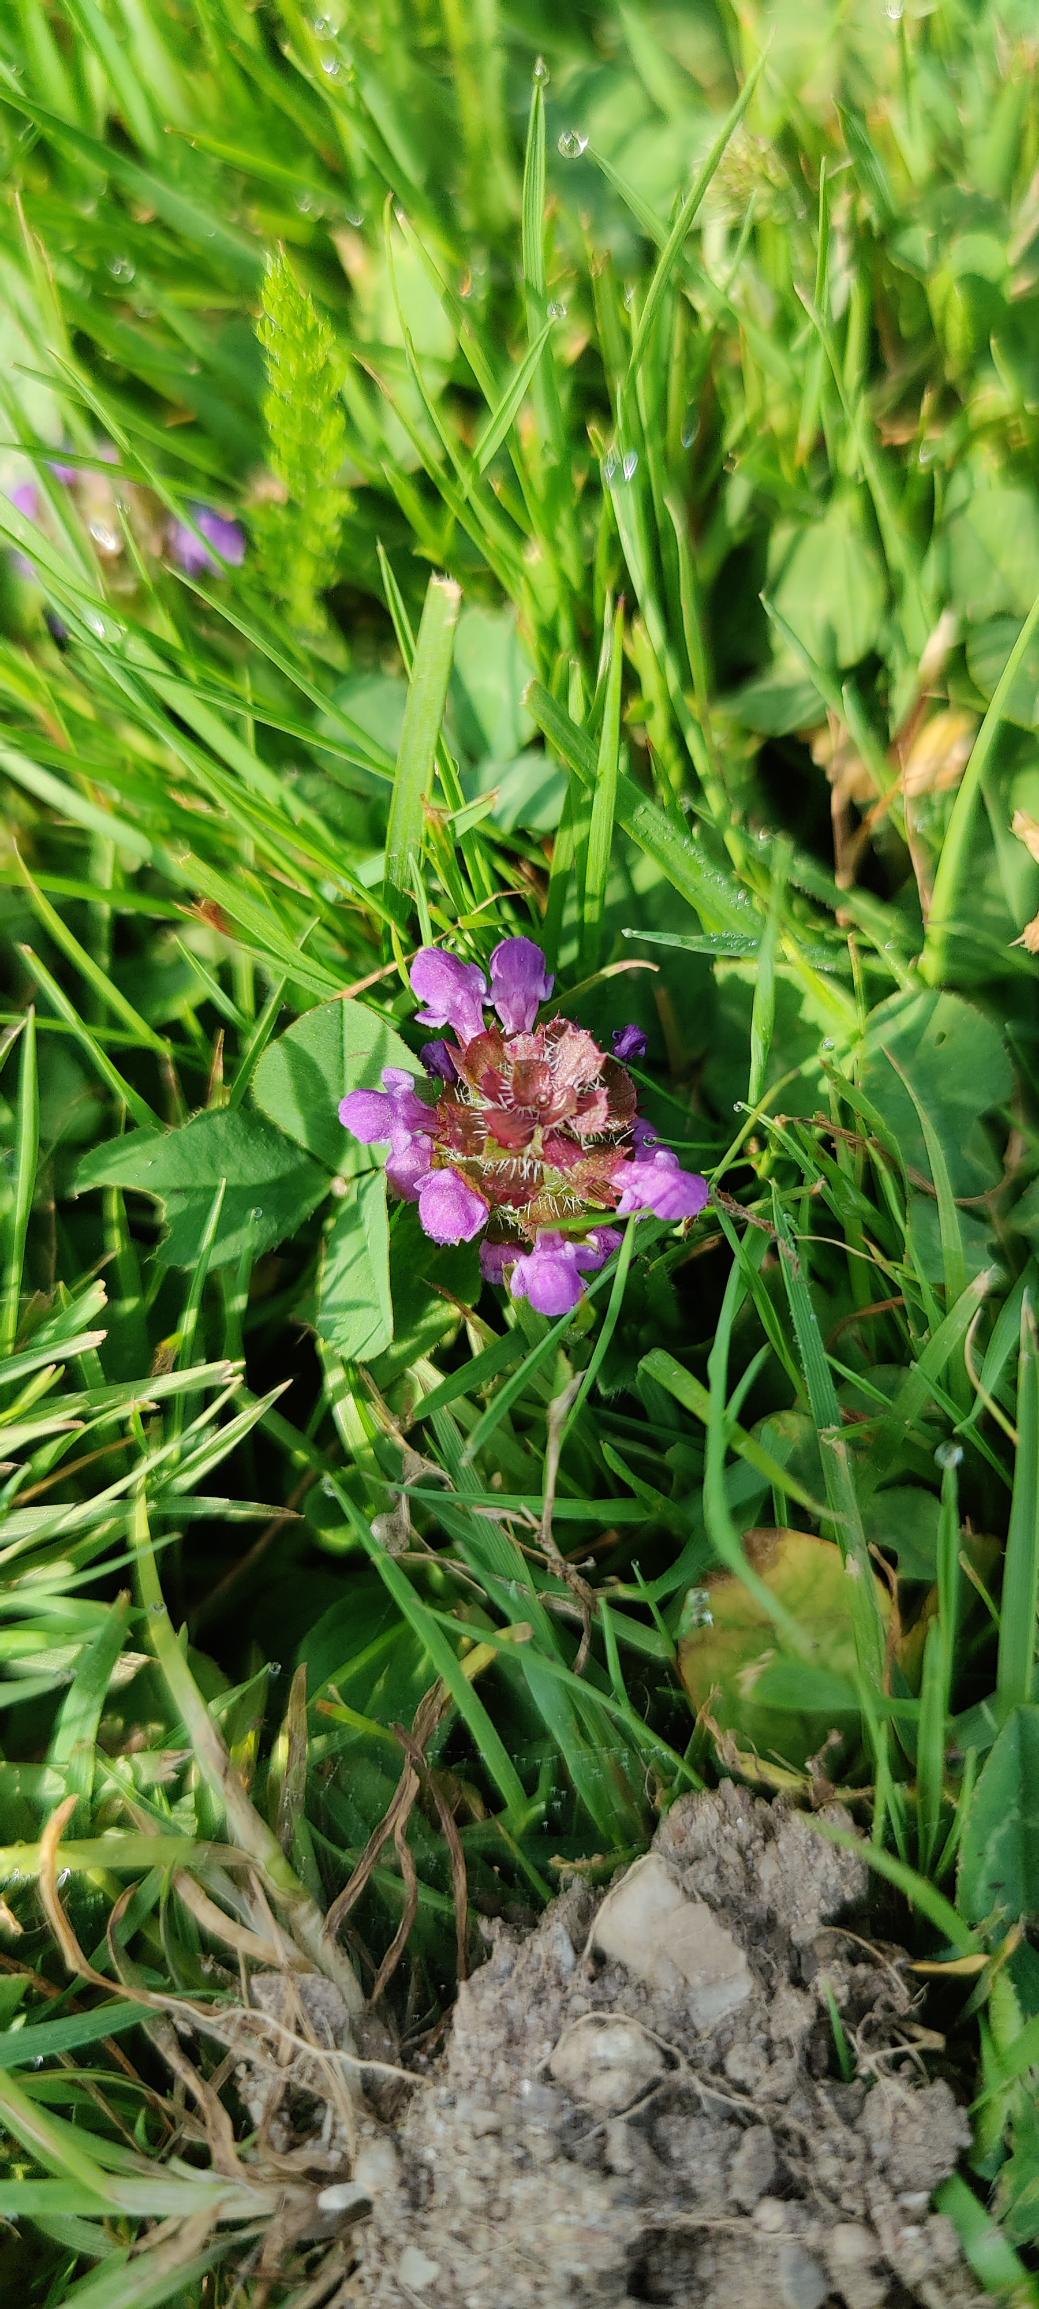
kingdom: Plantae
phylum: Tracheophyta
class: Magnoliopsida
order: Lamiales
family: Lamiaceae
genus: Prunella
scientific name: Prunella vulgaris
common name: Almindelig brunelle
